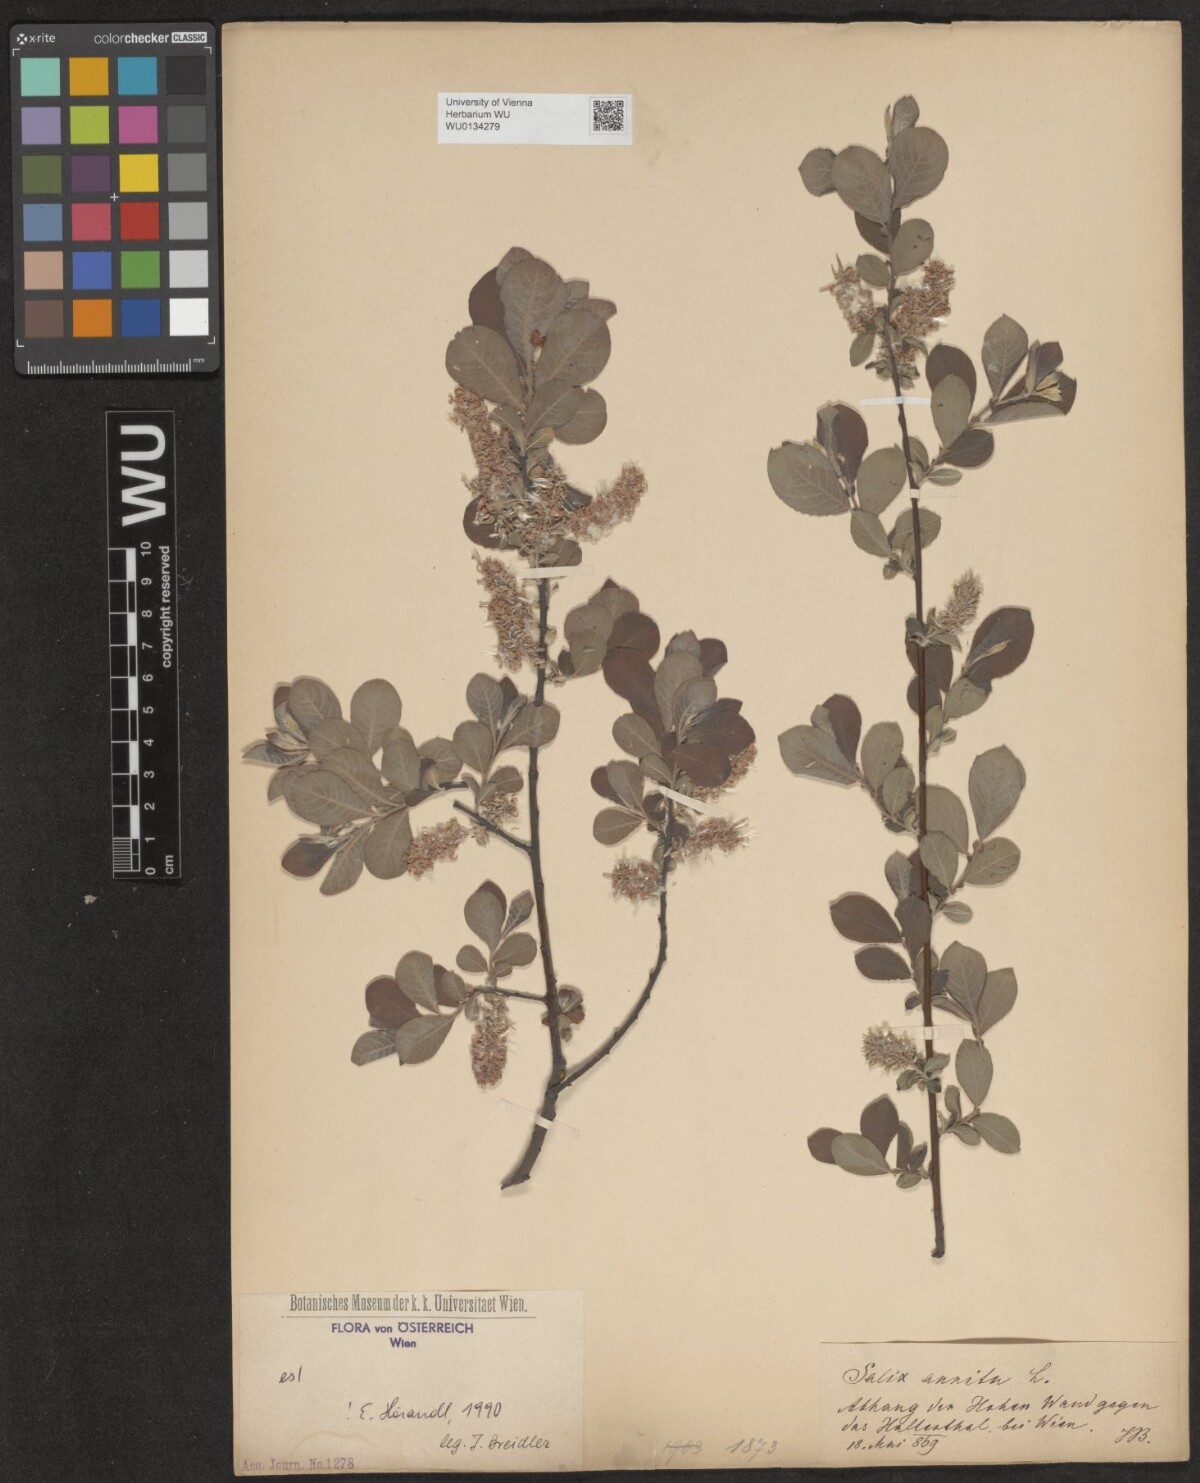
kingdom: Plantae
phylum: Tracheophyta
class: Magnoliopsida
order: Malpighiales
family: Salicaceae
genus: Salix
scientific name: Salix aurita
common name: Eared willow
